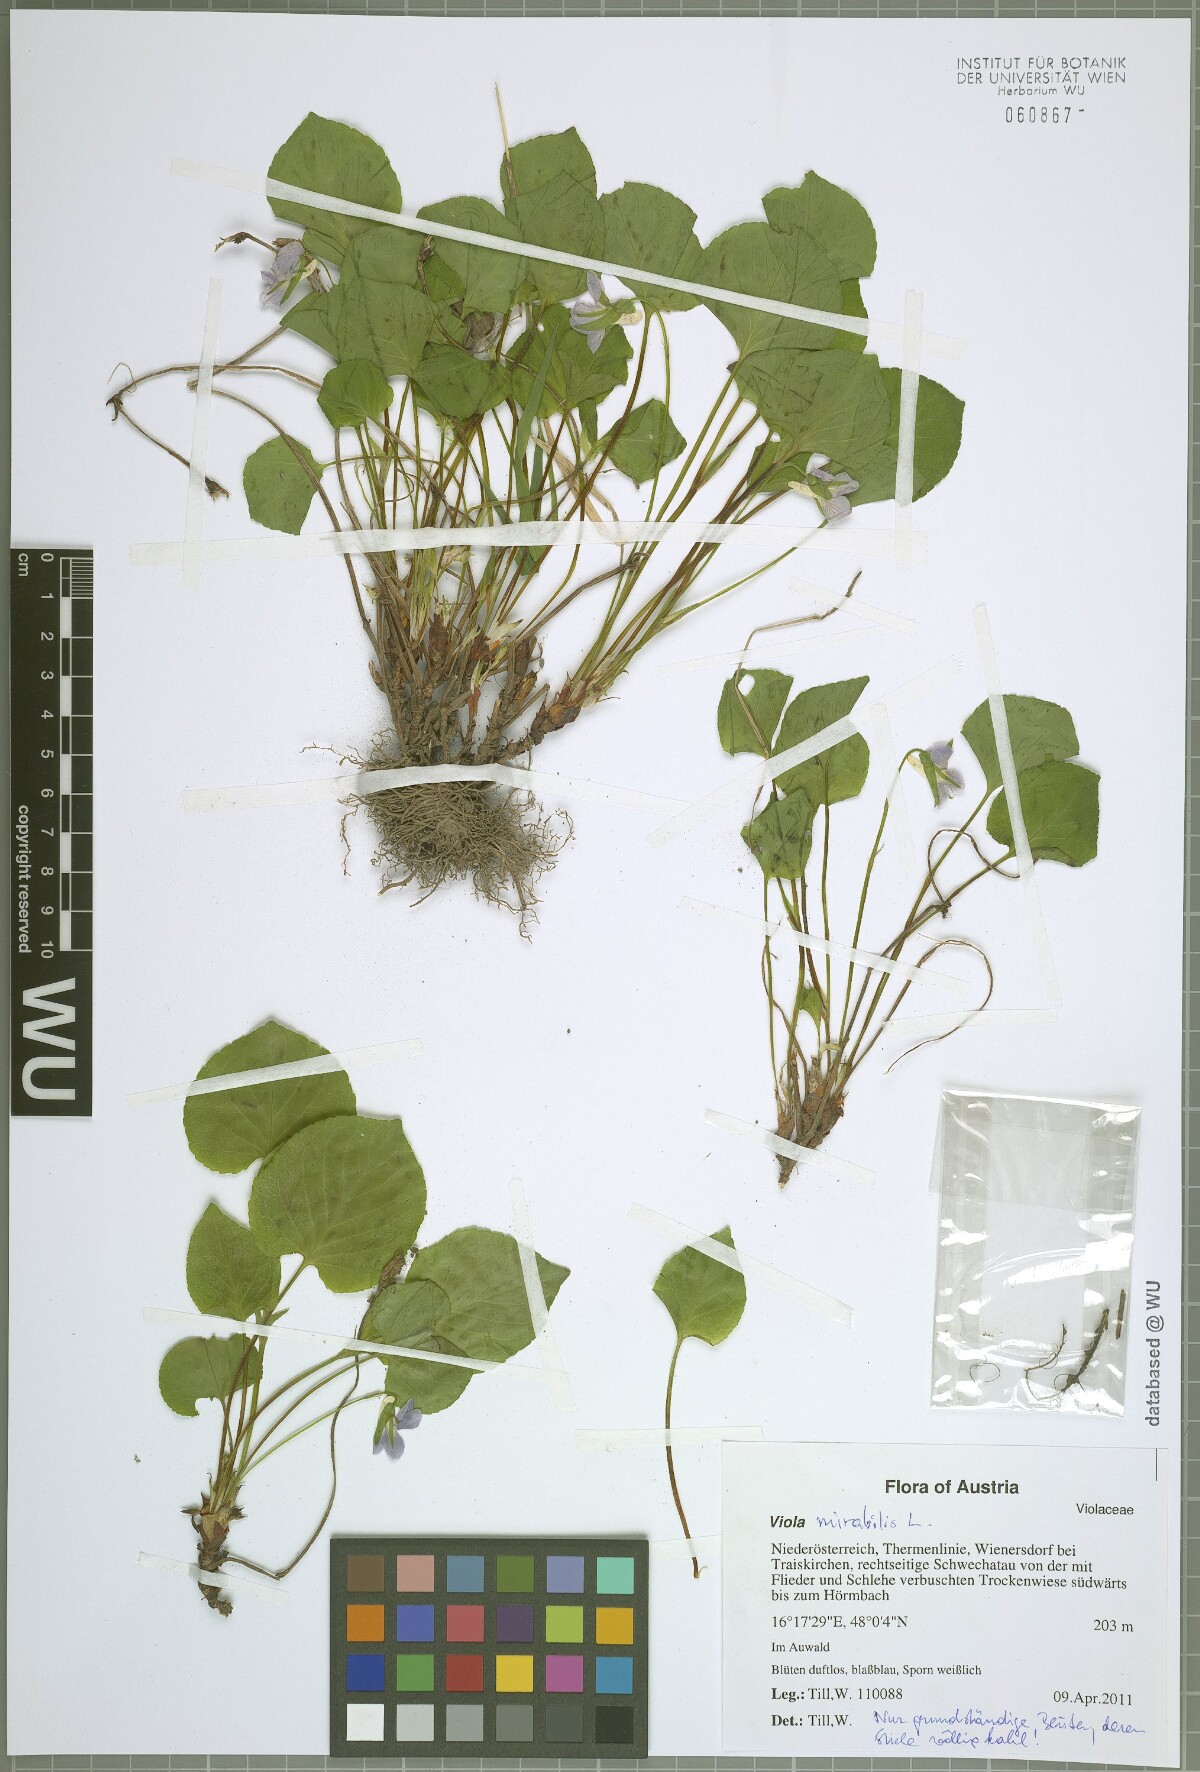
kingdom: Plantae
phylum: Tracheophyta
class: Magnoliopsida
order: Malpighiales
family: Violaceae
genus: Viola
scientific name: Viola mirabilis
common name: Wonder violet
